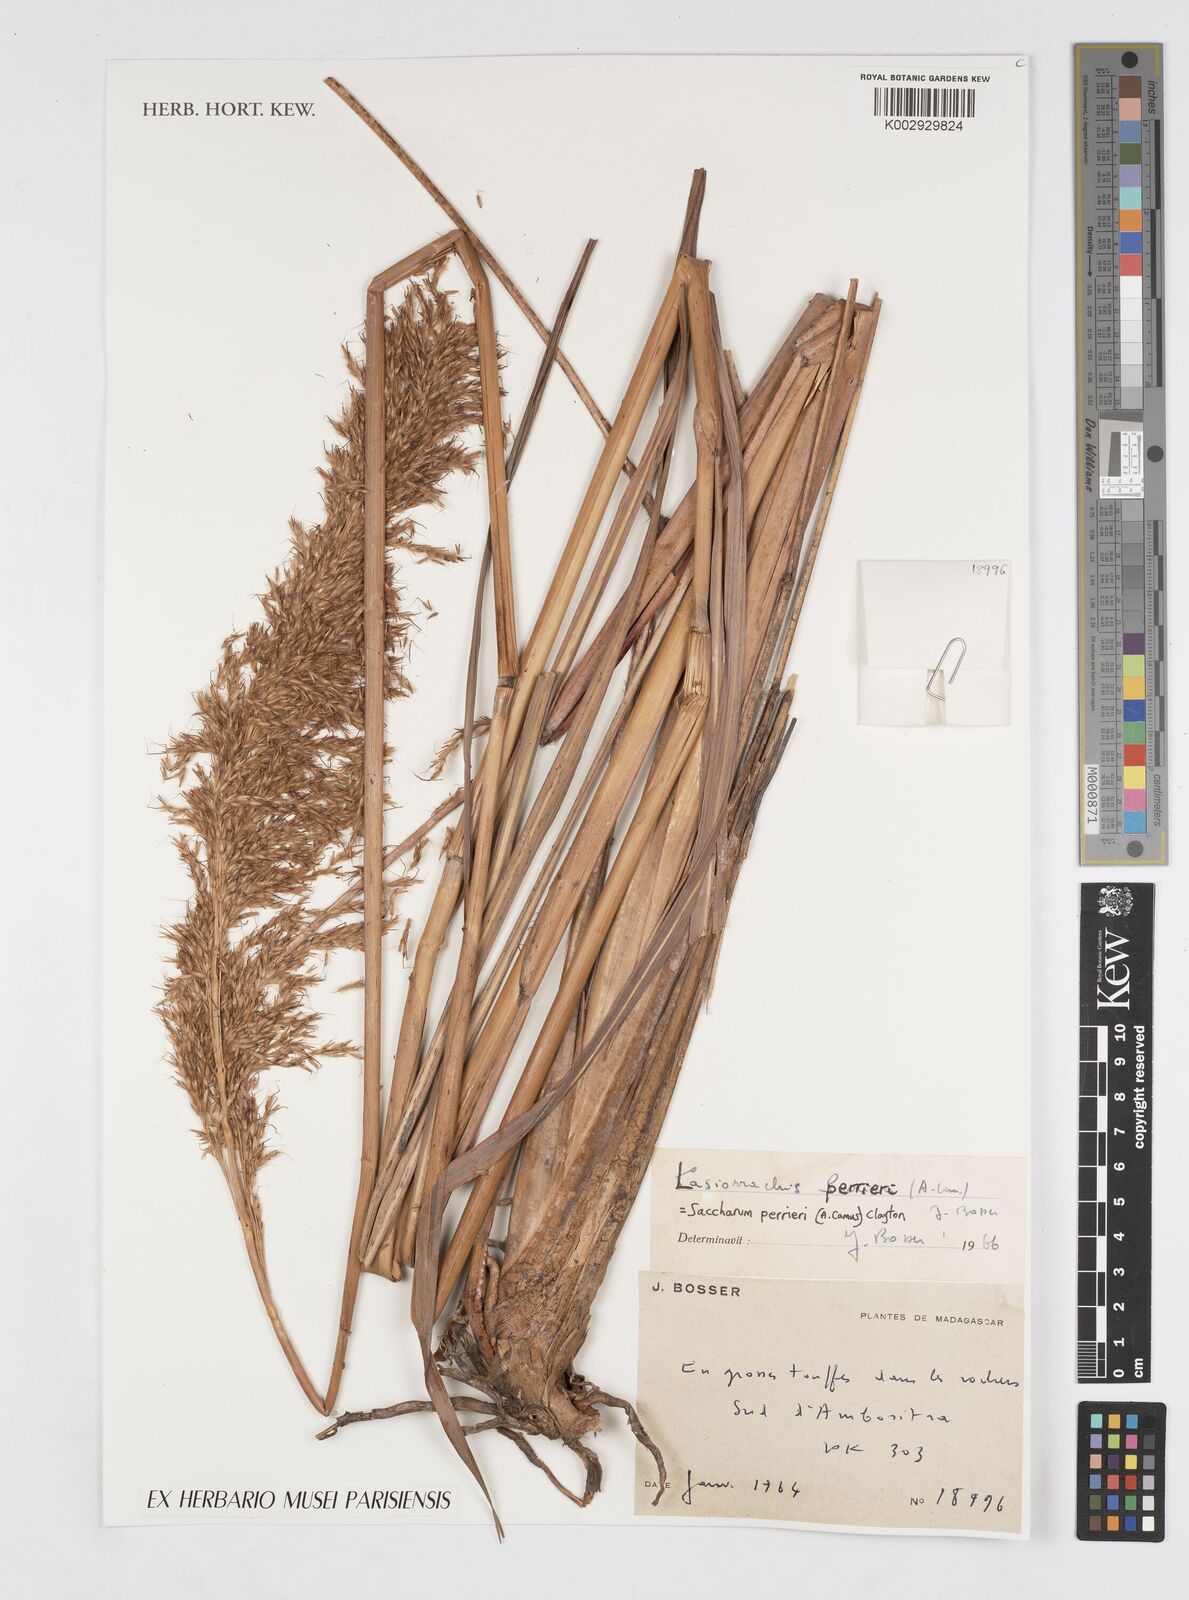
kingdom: Plantae
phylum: Tracheophyta
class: Liliopsida
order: Poales
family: Poaceae
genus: Lasiorhachis
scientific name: Lasiorhachis perrieri
